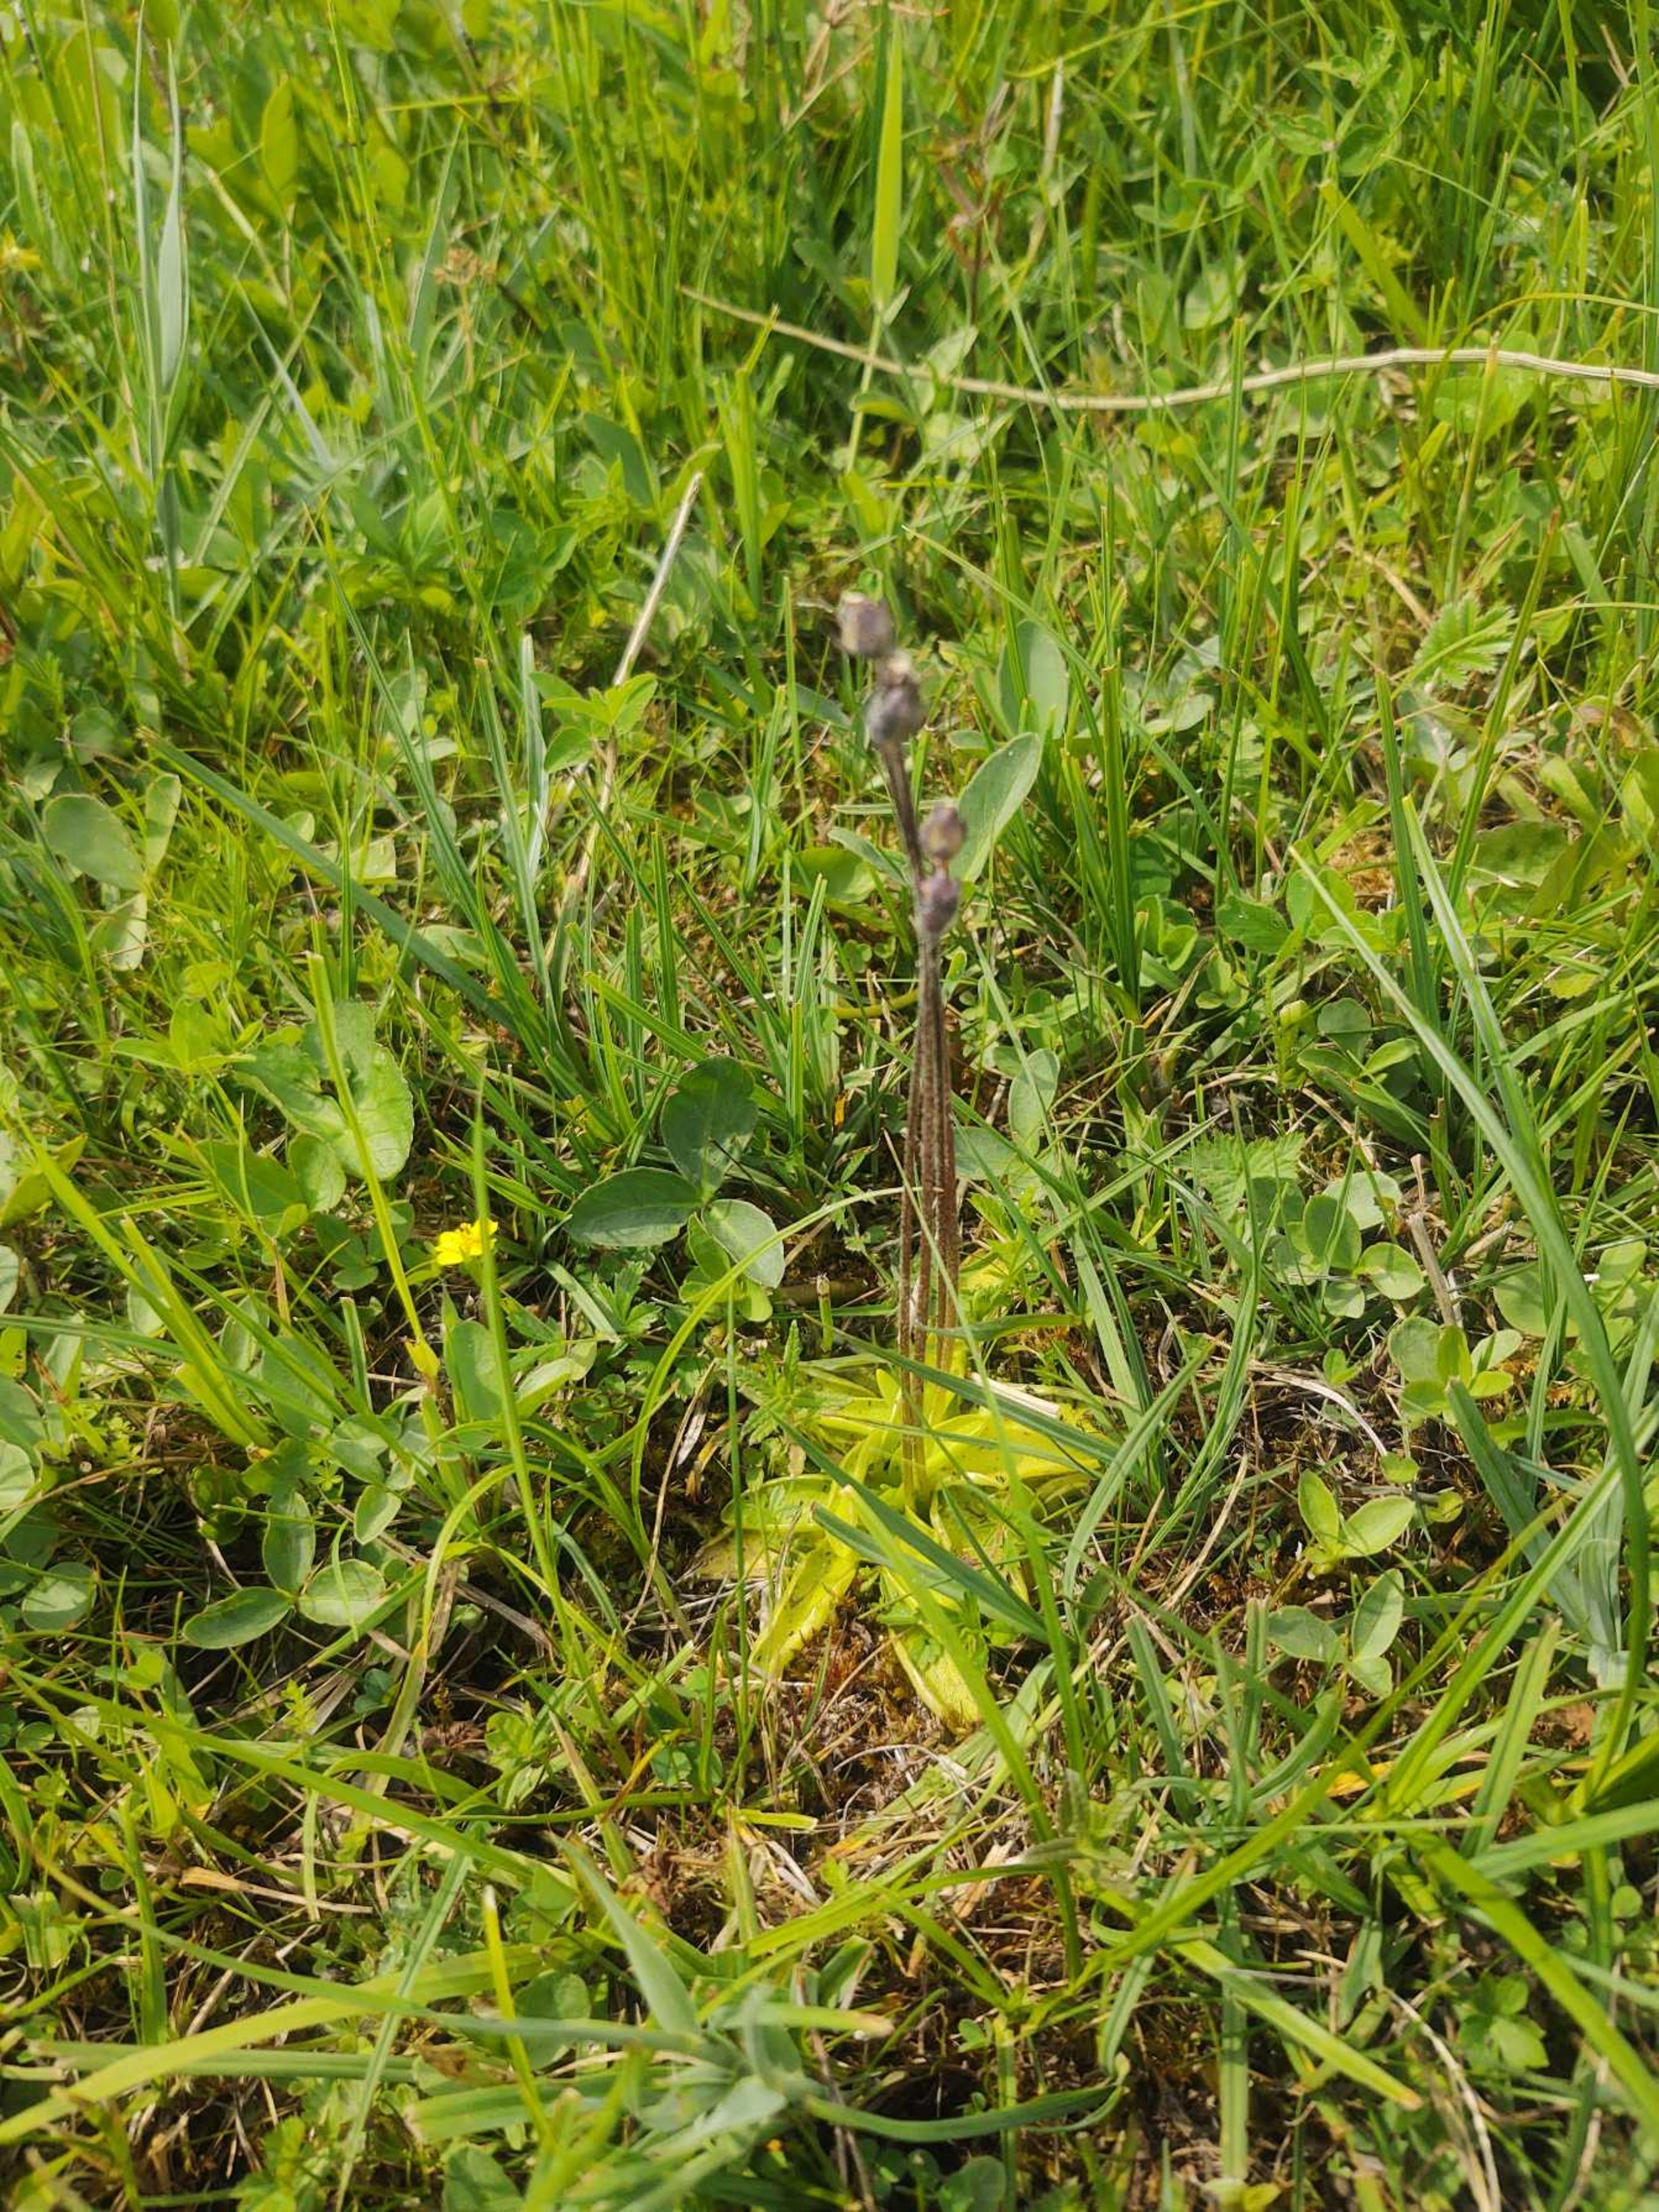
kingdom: Plantae
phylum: Tracheophyta
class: Magnoliopsida
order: Lamiales
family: Lentibulariaceae
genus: Pinguicula
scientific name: Pinguicula vulgaris
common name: Vibefedt
